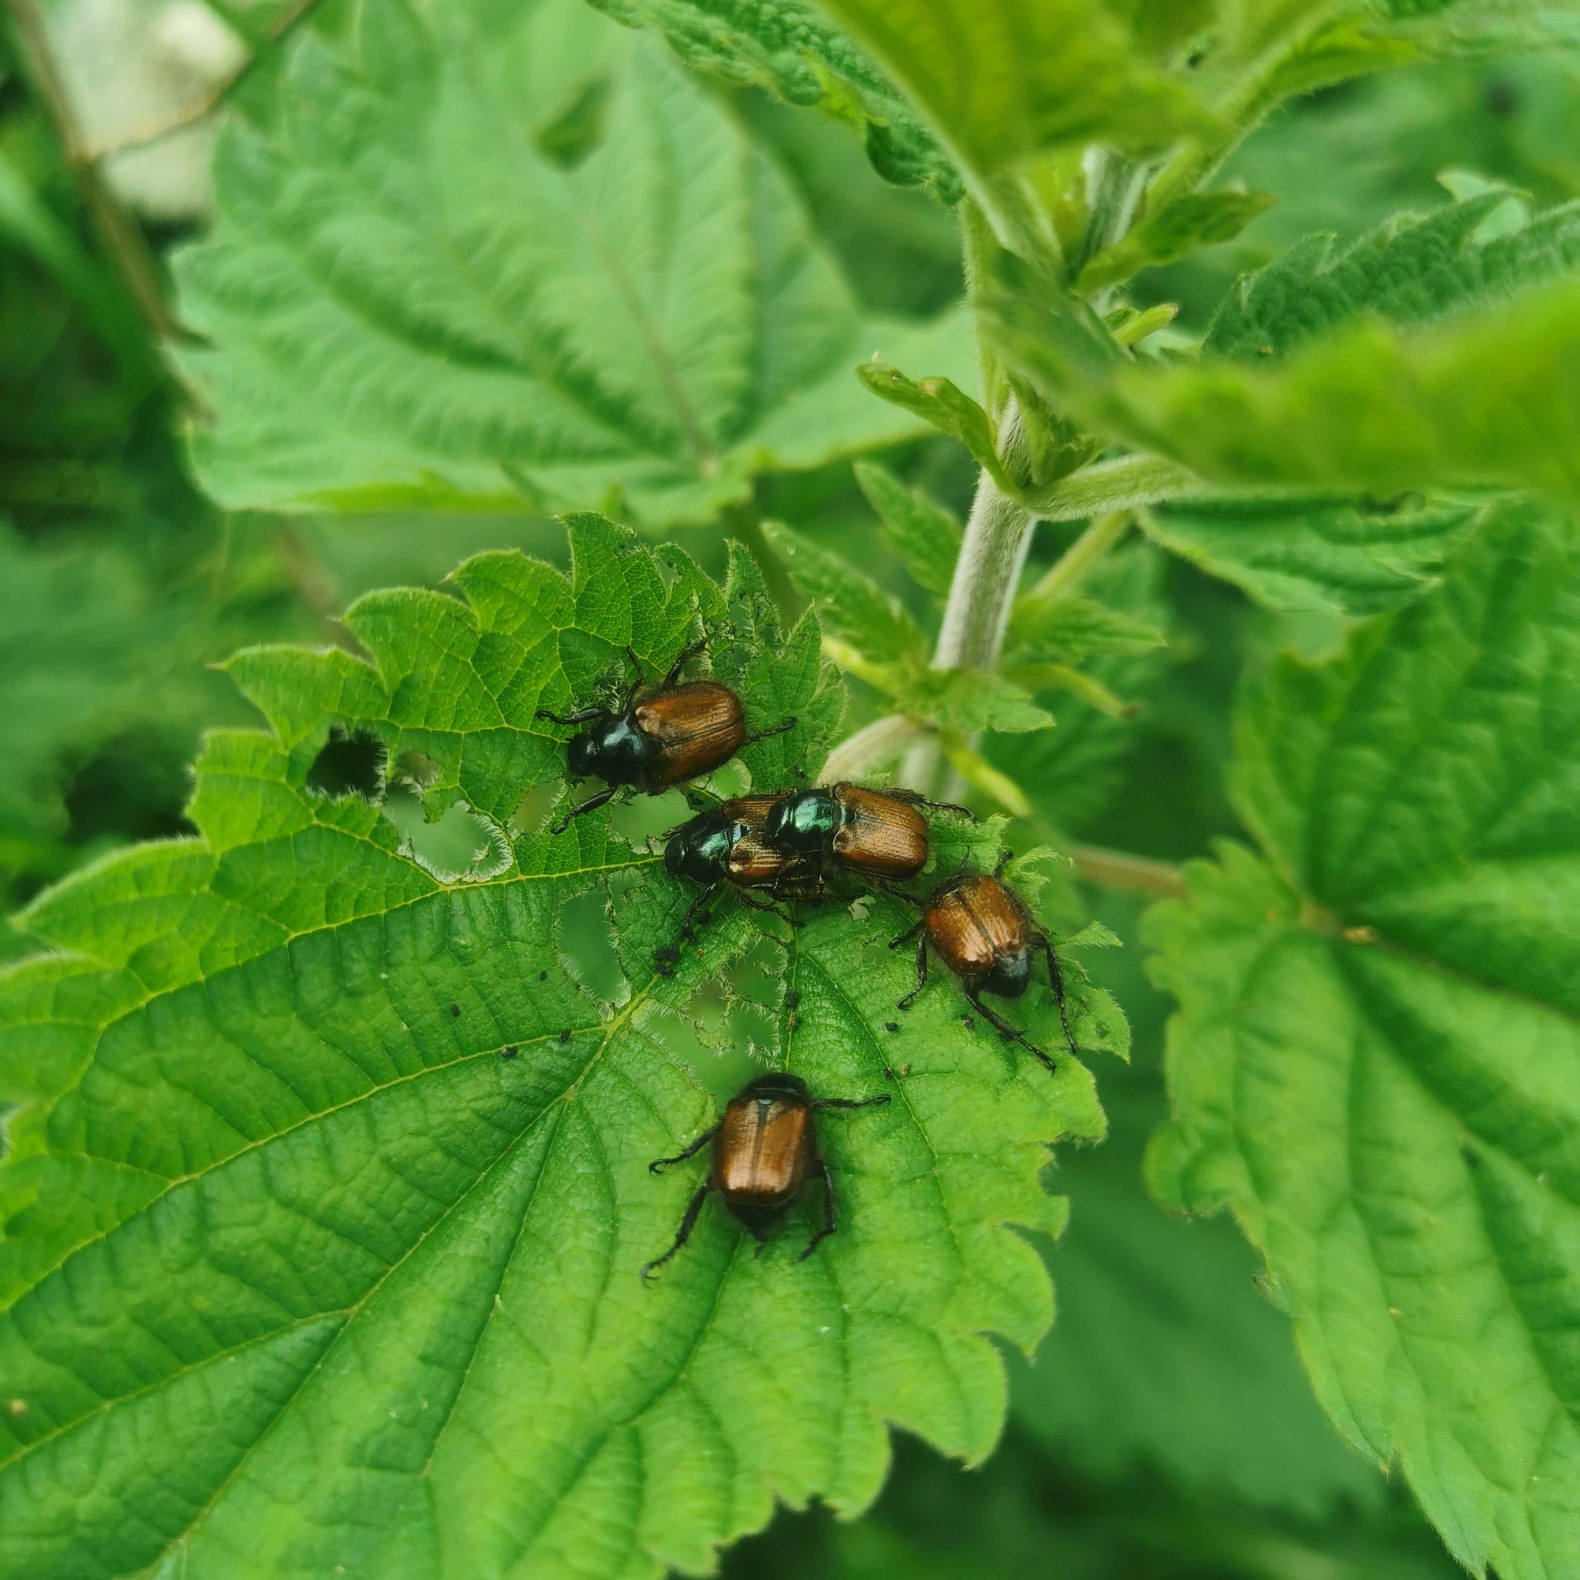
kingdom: Animalia
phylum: Arthropoda
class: Insecta
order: Coleoptera
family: Scarabaeidae
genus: Phyllopertha
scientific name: Phyllopertha horticola
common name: Gåsebille
